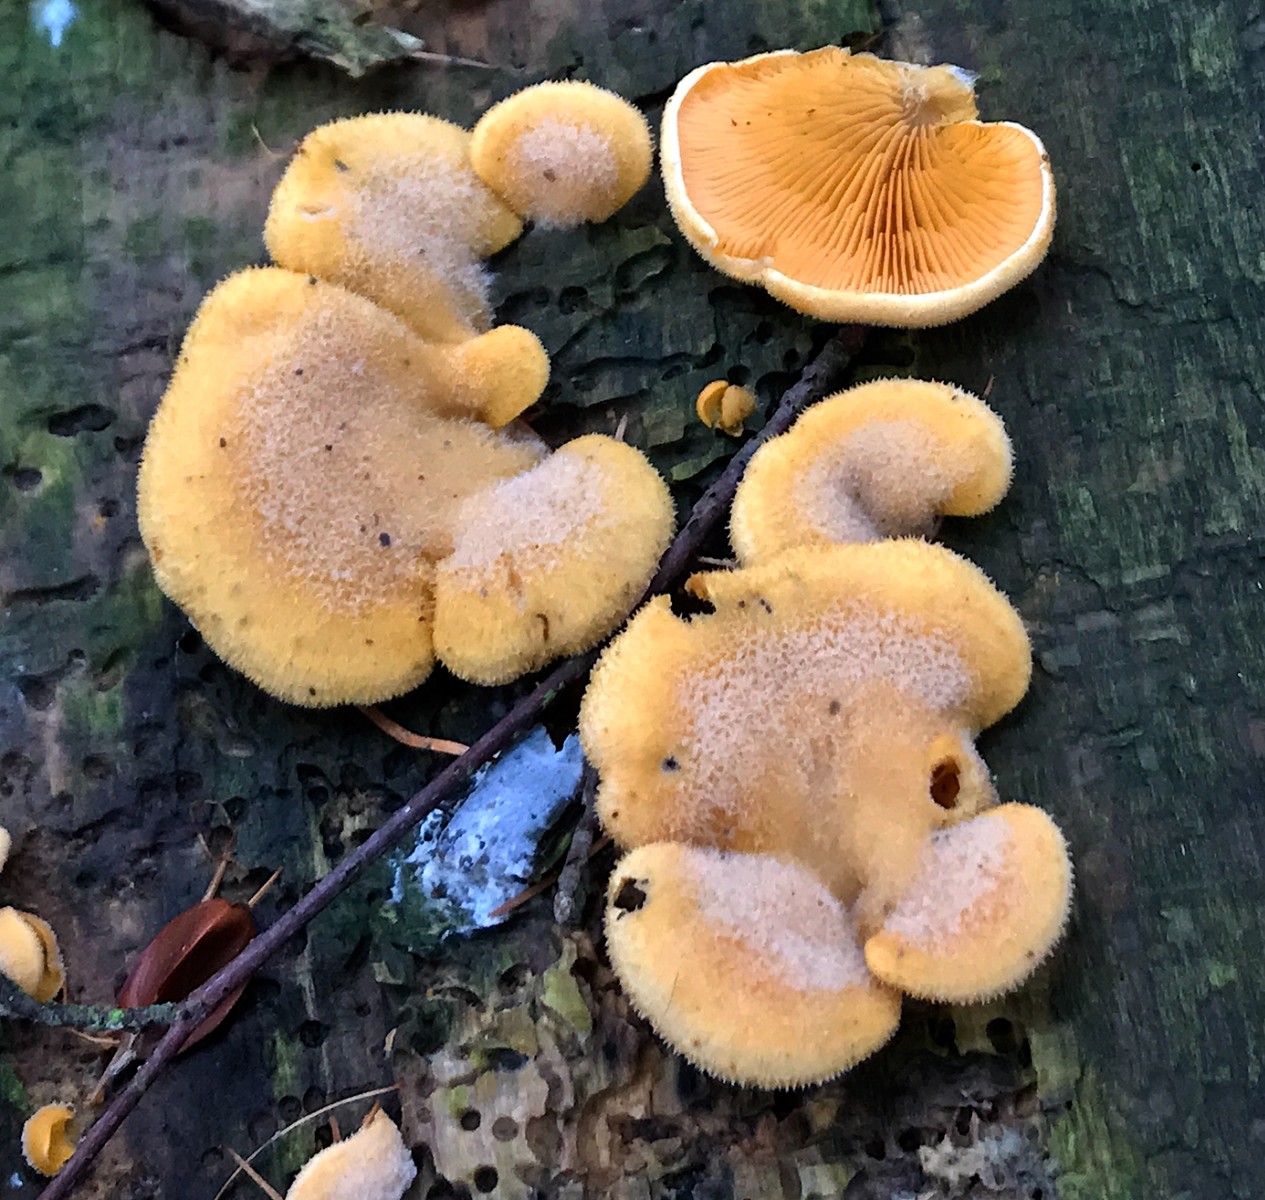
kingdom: Fungi
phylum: Basidiomycota
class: Agaricomycetes
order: Agaricales
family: Phyllotopsidaceae
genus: Phyllotopsis
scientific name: Phyllotopsis nidulans
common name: okkerblad
